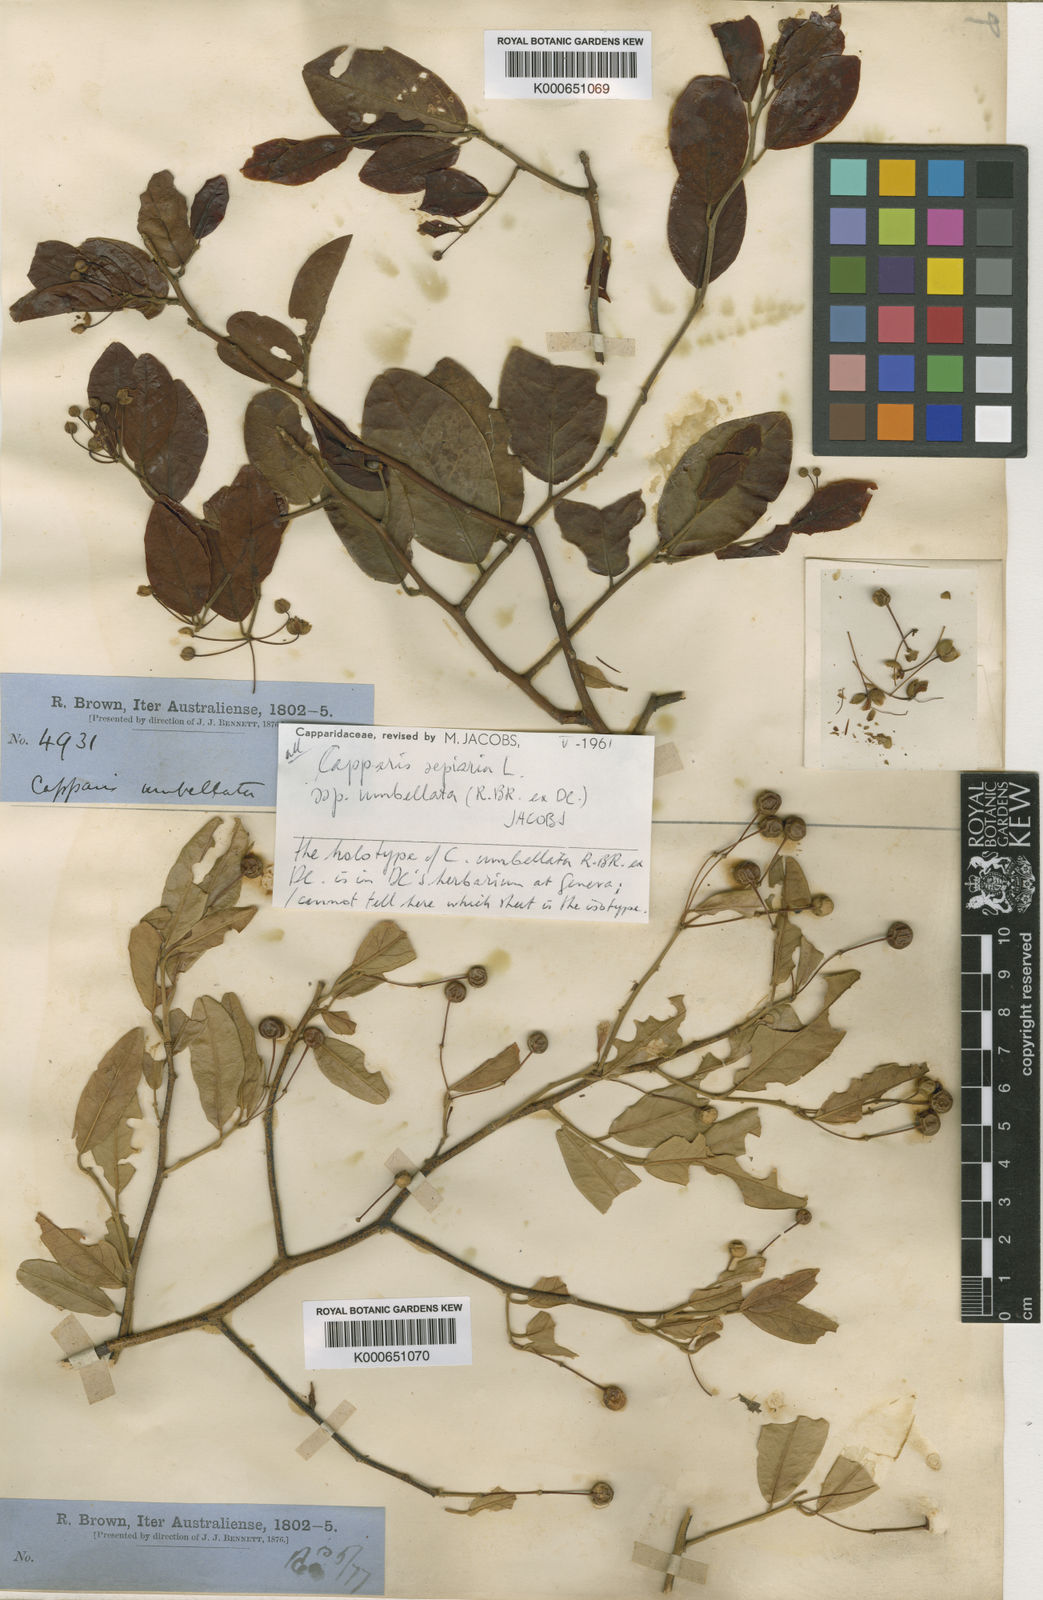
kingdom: Plantae
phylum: Tracheophyta
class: Magnoliopsida
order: Brassicales
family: Capparaceae
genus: Capparis
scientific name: Capparis sepiaria
